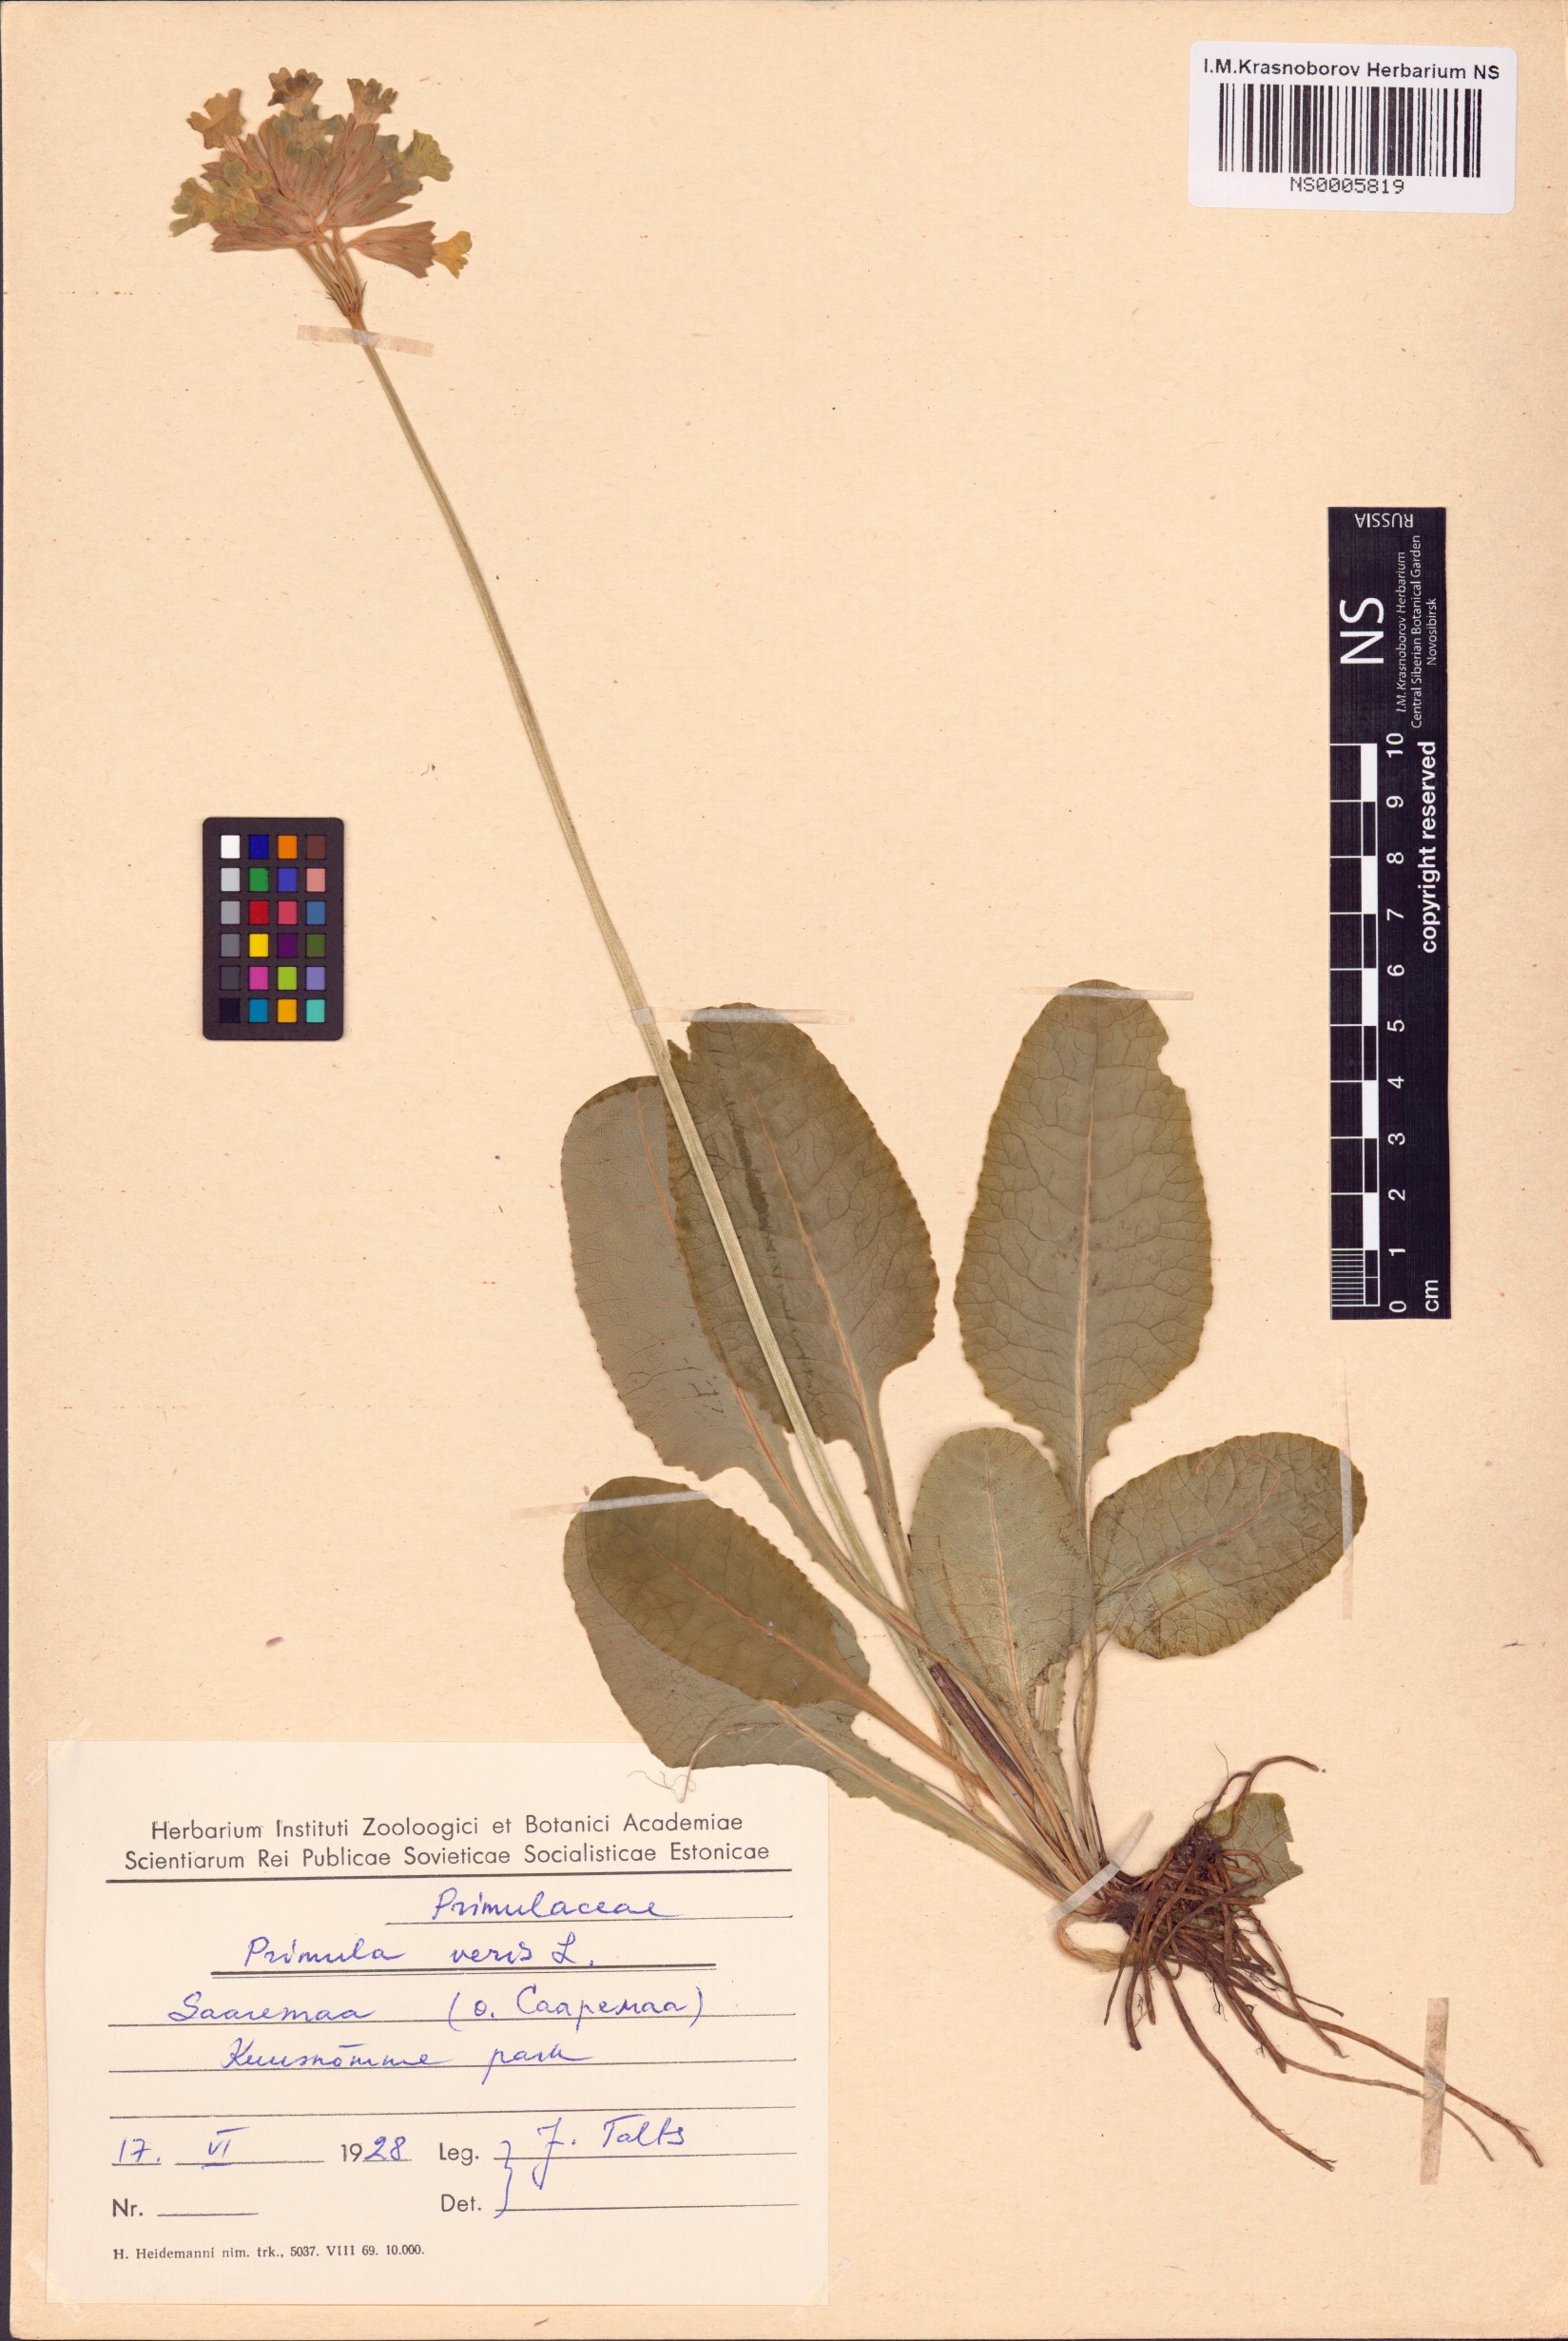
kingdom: Plantae
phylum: Tracheophyta
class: Magnoliopsida
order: Ericales
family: Primulaceae
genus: Primula
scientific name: Primula veris
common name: Cowslip
